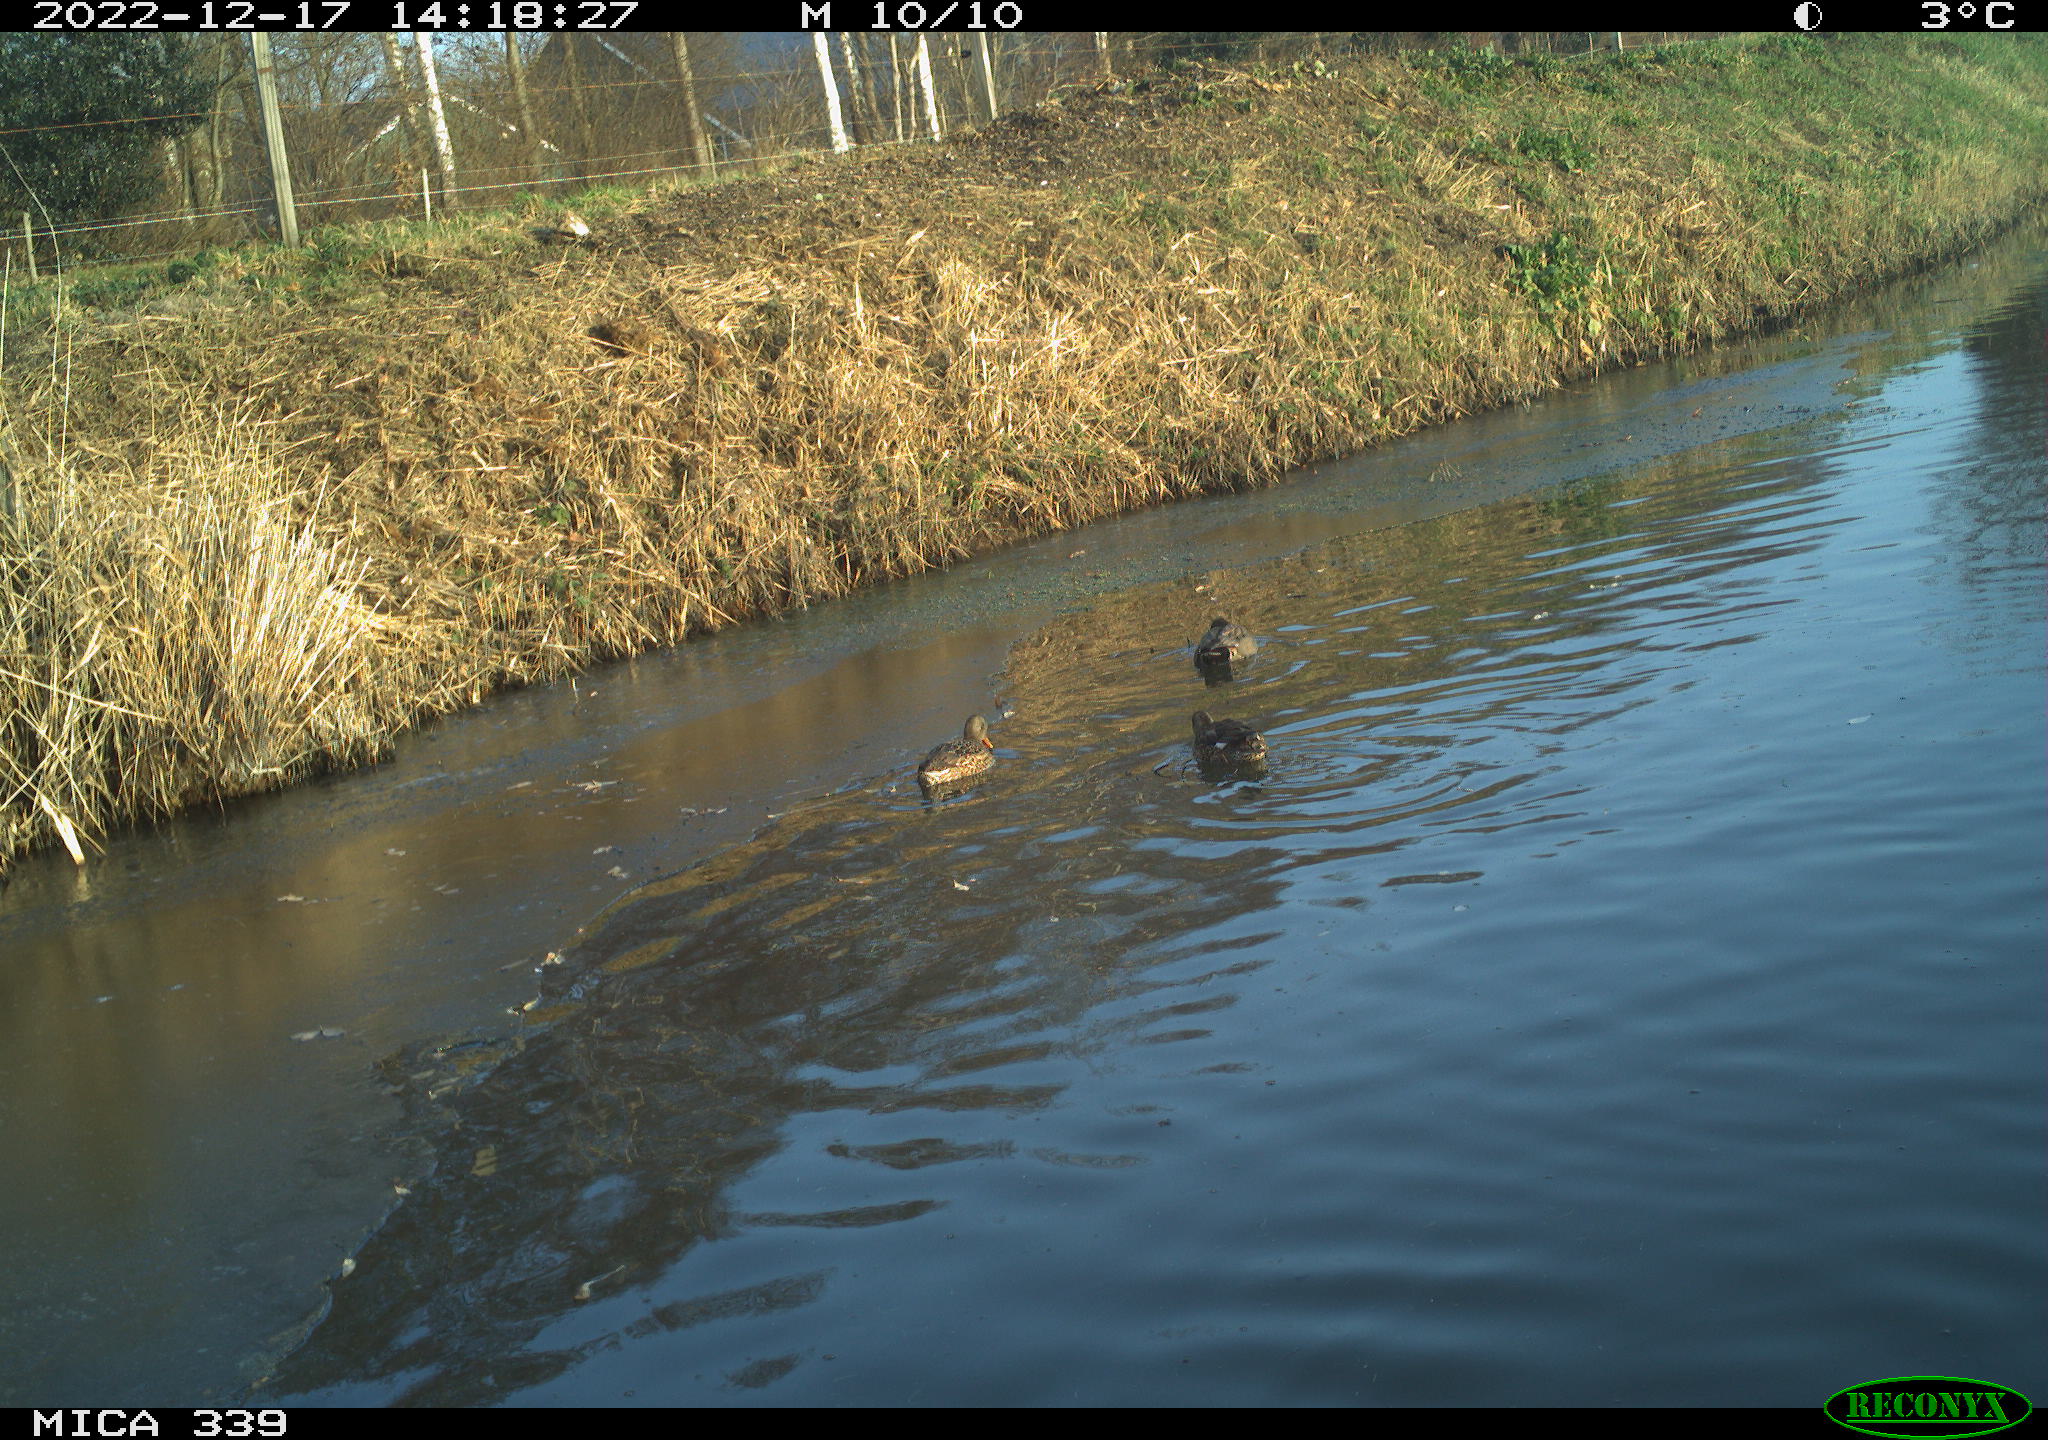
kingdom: Animalia
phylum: Chordata
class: Aves
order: Anseriformes
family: Anatidae
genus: Anas
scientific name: Anas
